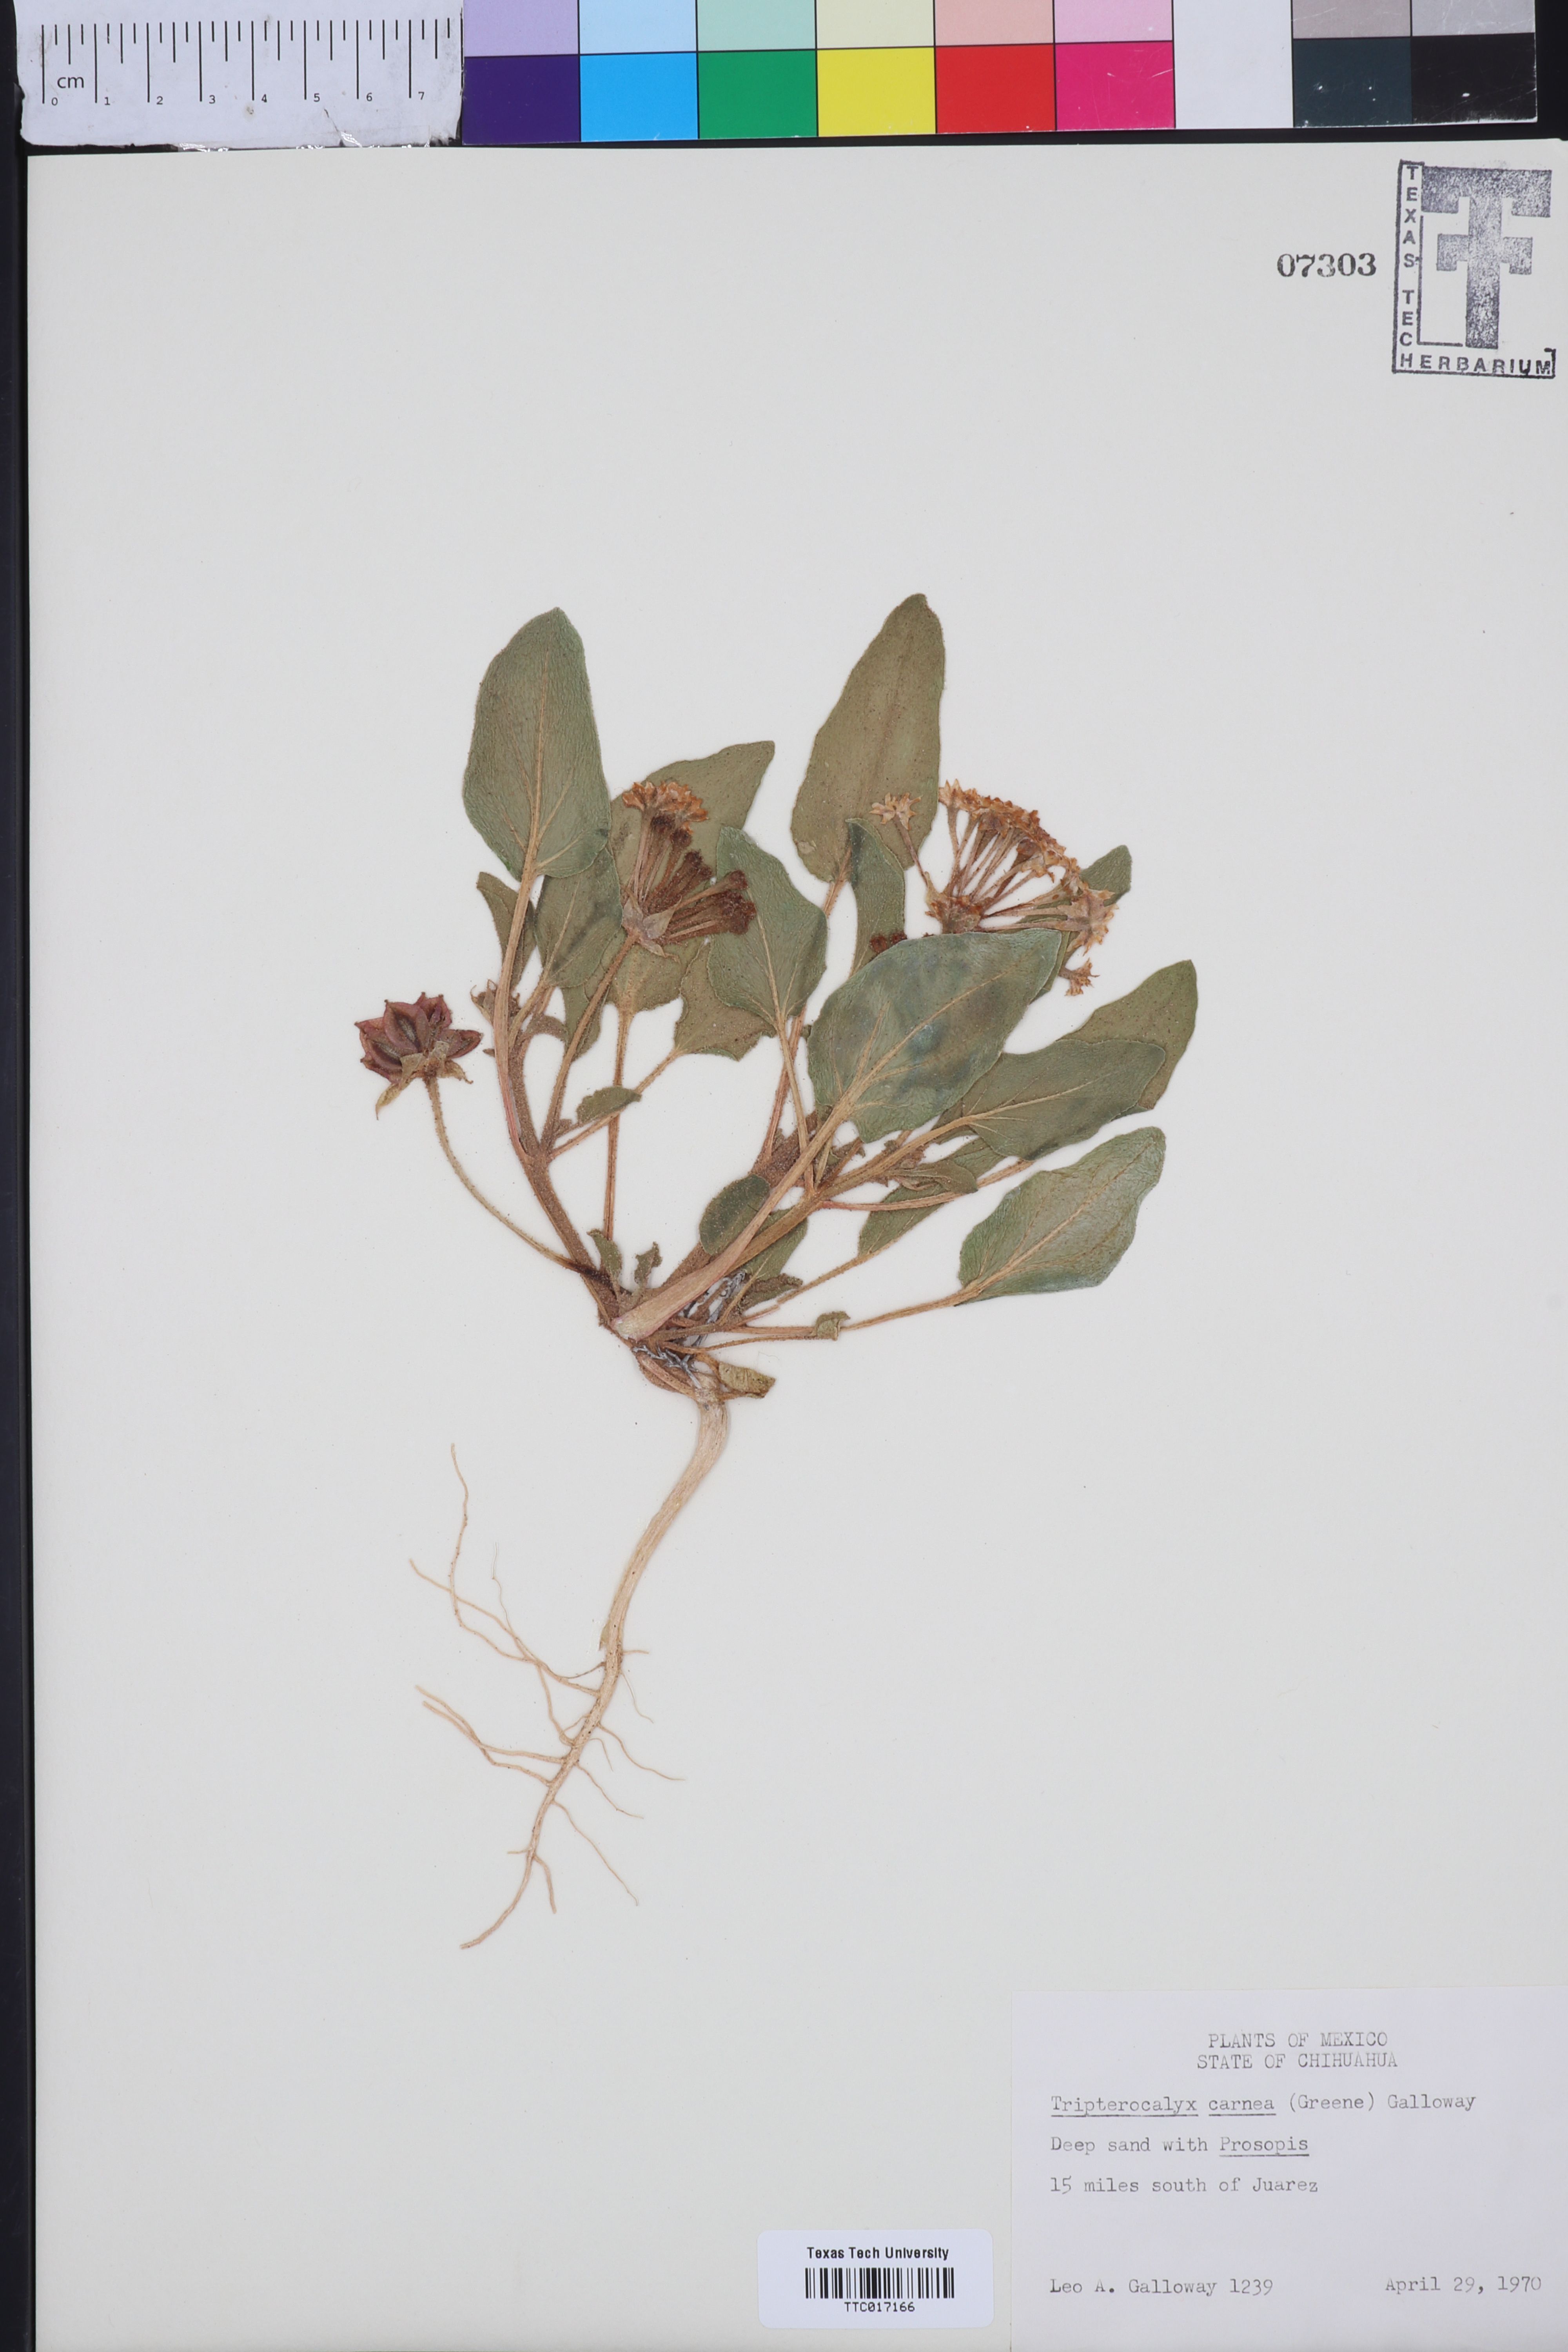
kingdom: Plantae
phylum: Tracheophyta
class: Magnoliopsida
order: Caryophyllales
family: Nyctaginaceae
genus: Tripterocalyx
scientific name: Tripterocalyx carneus
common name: Winged sandpuffs
